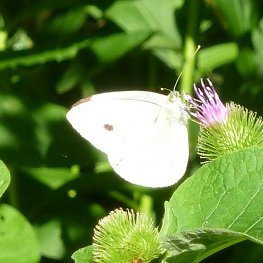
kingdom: Animalia
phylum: Arthropoda
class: Insecta
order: Lepidoptera
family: Pieridae
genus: Pieris
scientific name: Pieris rapae
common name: Cabbage White
